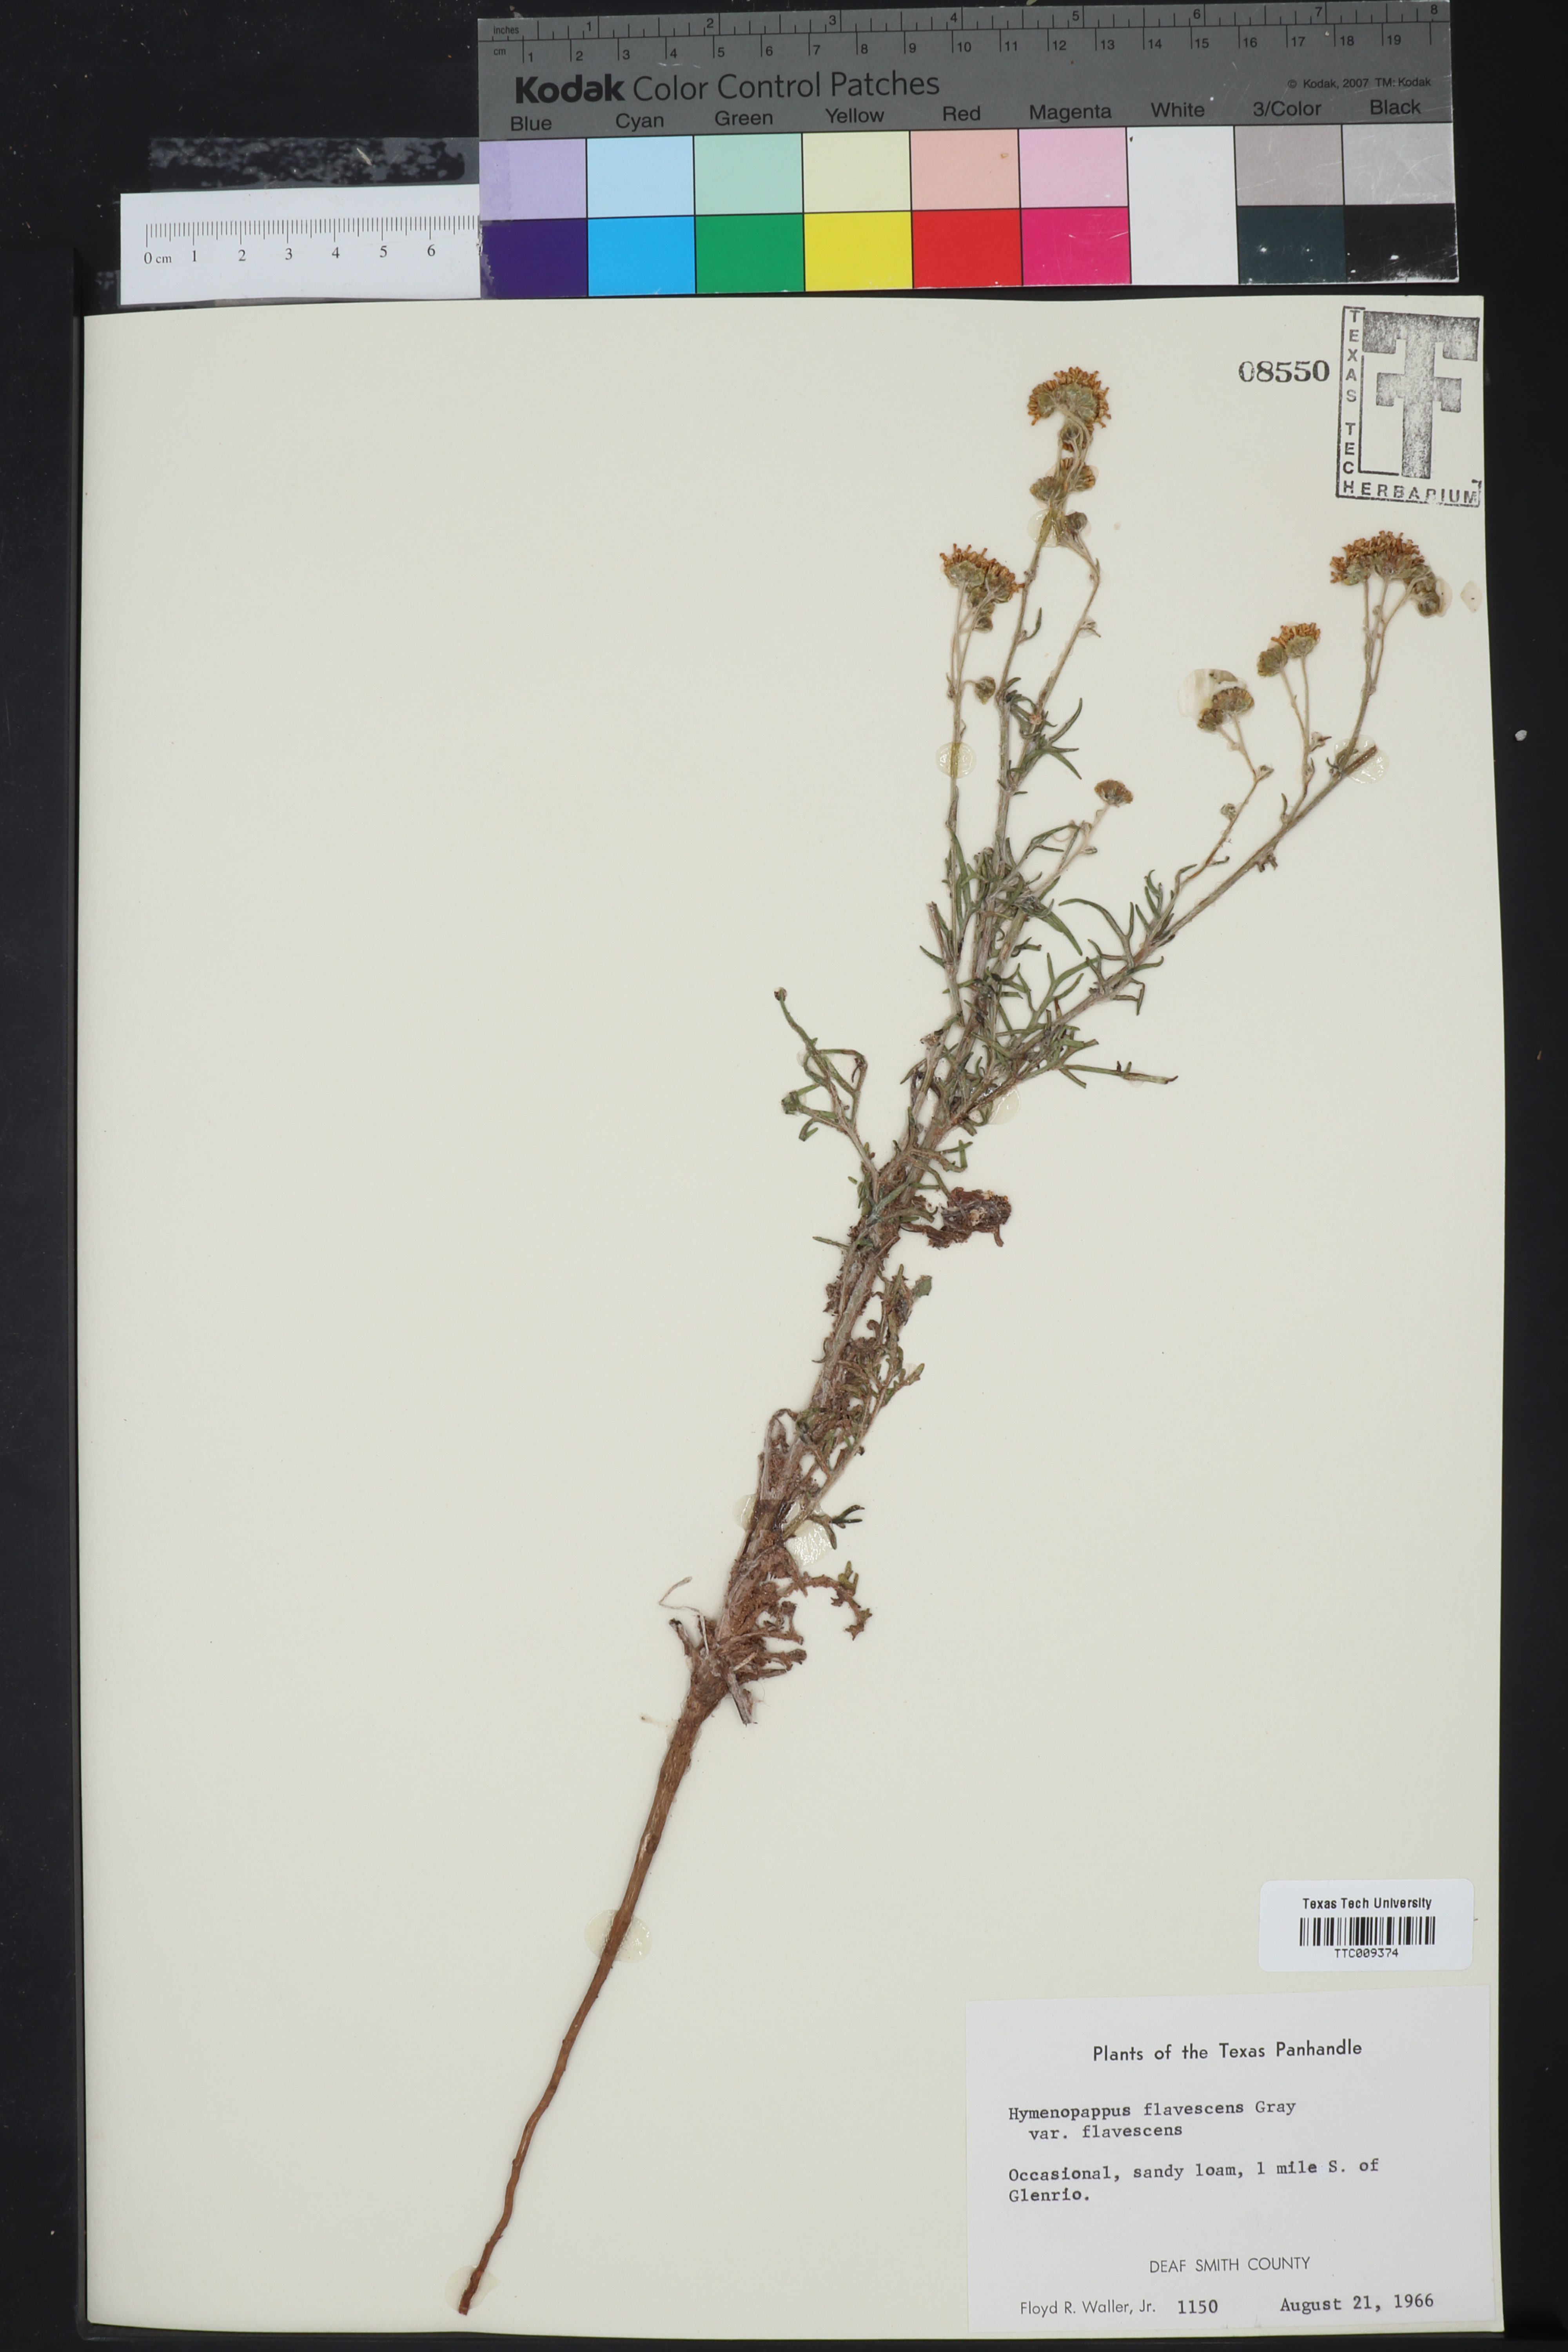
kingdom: Plantae
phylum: Tracheophyta
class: Magnoliopsida
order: Asterales
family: Asteraceae
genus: Hymenopappus
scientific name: Hymenopappus flavescens
